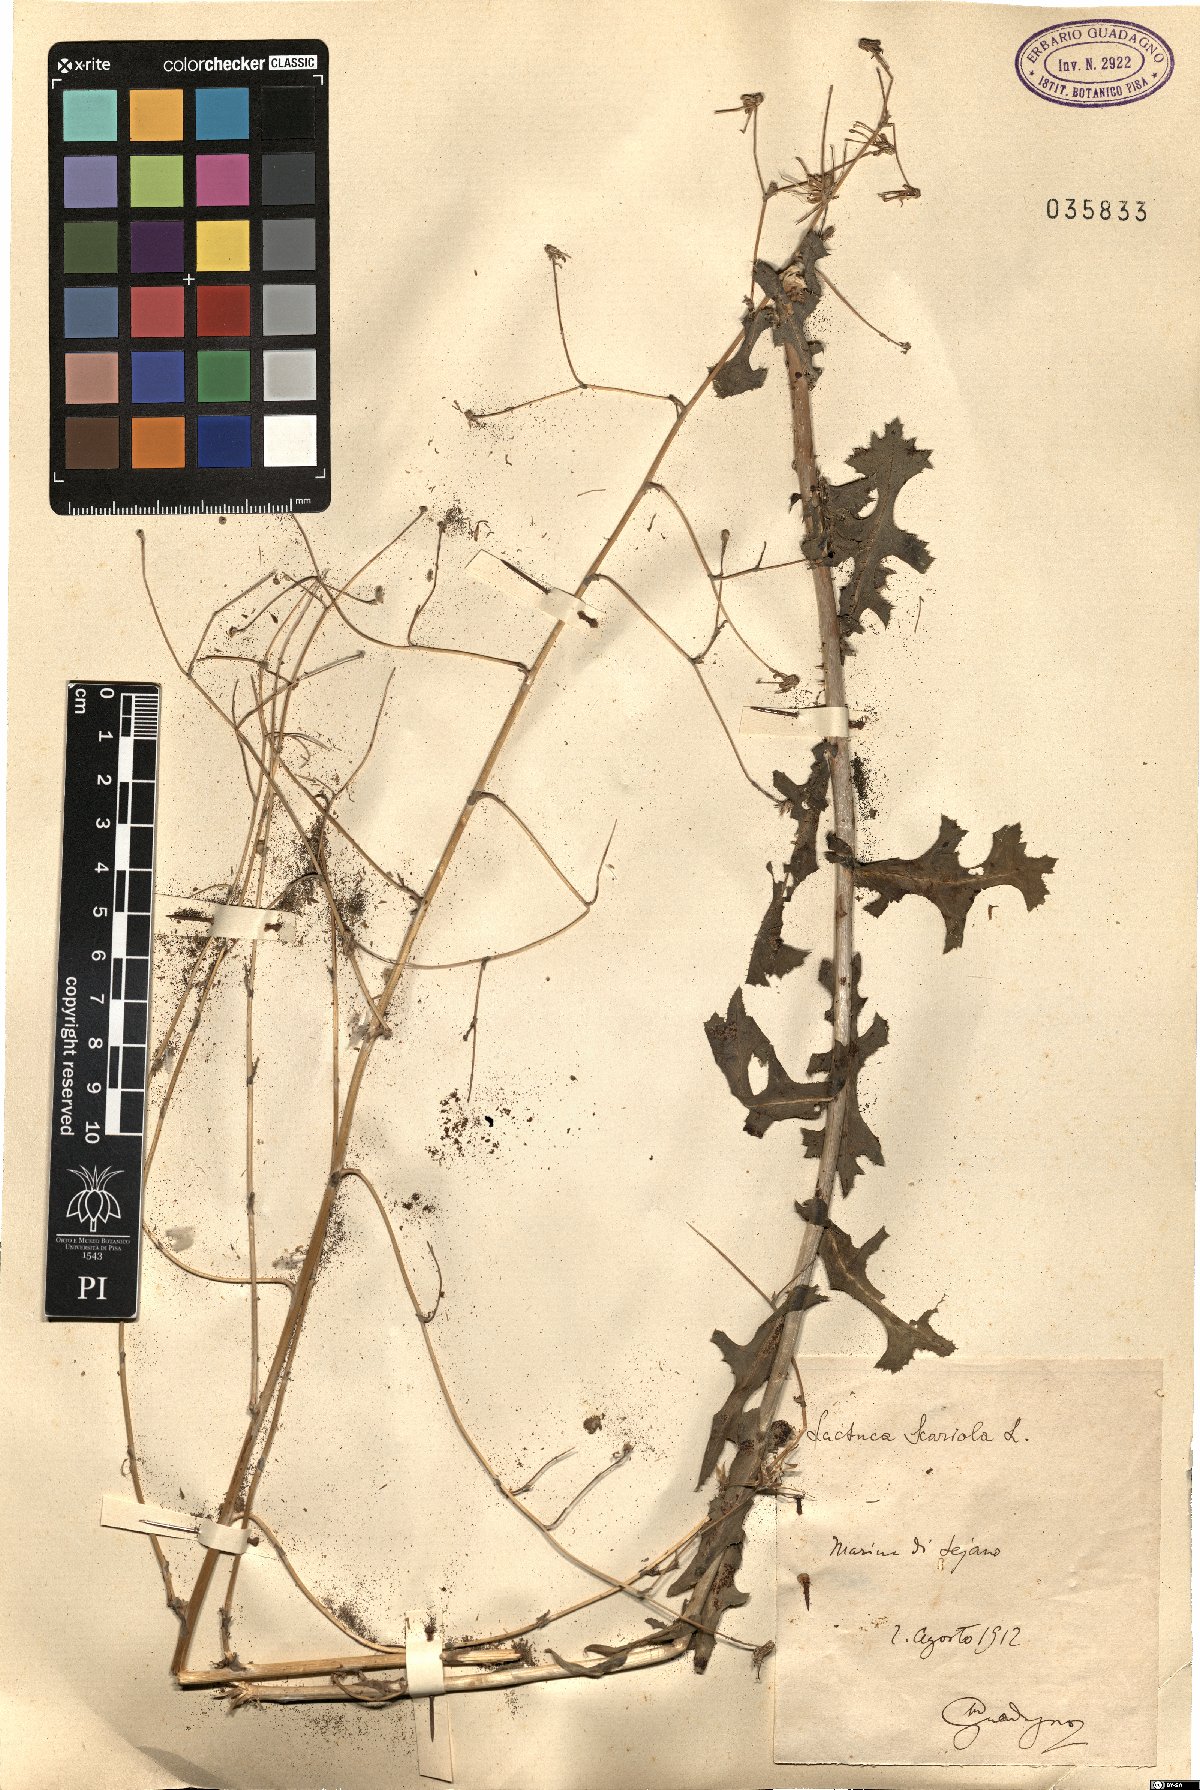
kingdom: Plantae
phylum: Tracheophyta
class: Magnoliopsida
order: Asterales
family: Asteraceae
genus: Lactuca
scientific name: Lactuca serriola
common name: Prickly lettuce
